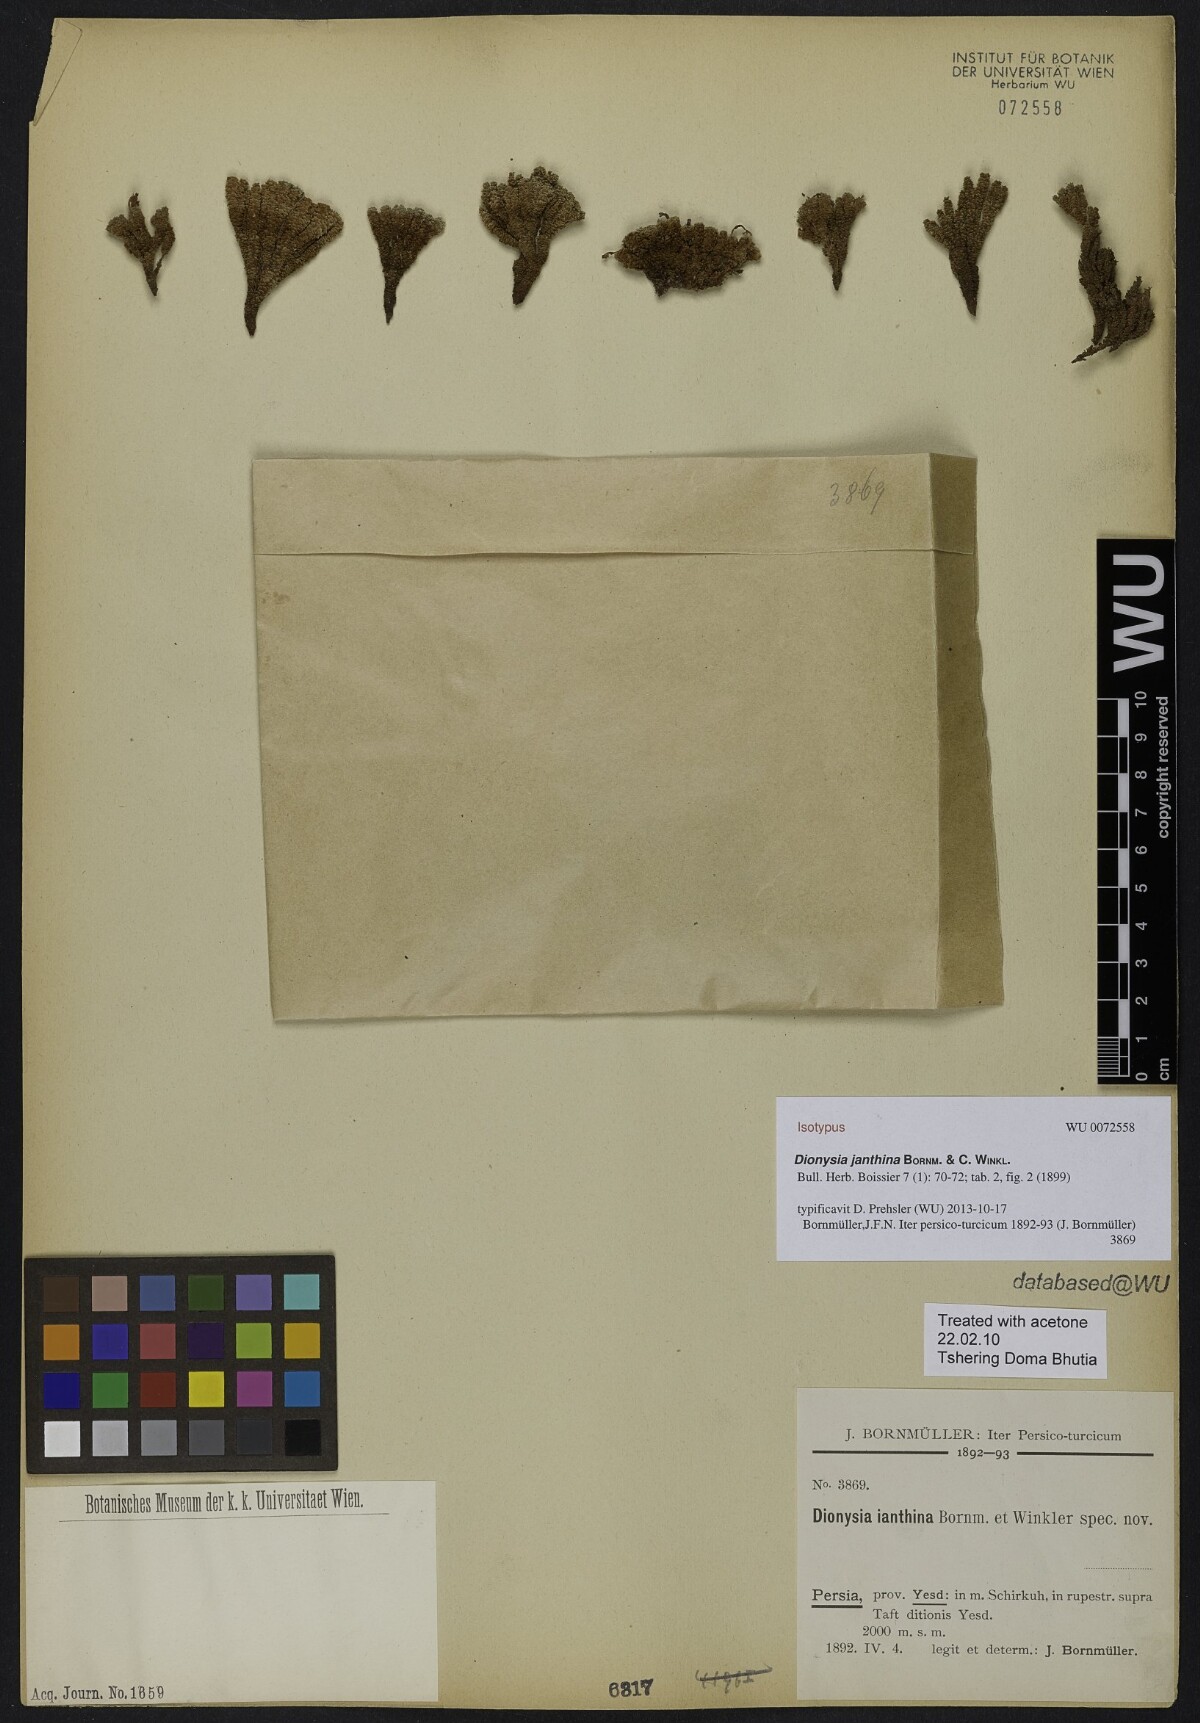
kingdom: Plantae
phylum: Tracheophyta
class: Magnoliopsida
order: Ericales
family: Primulaceae
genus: Dionysia
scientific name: Dionysia janthina
